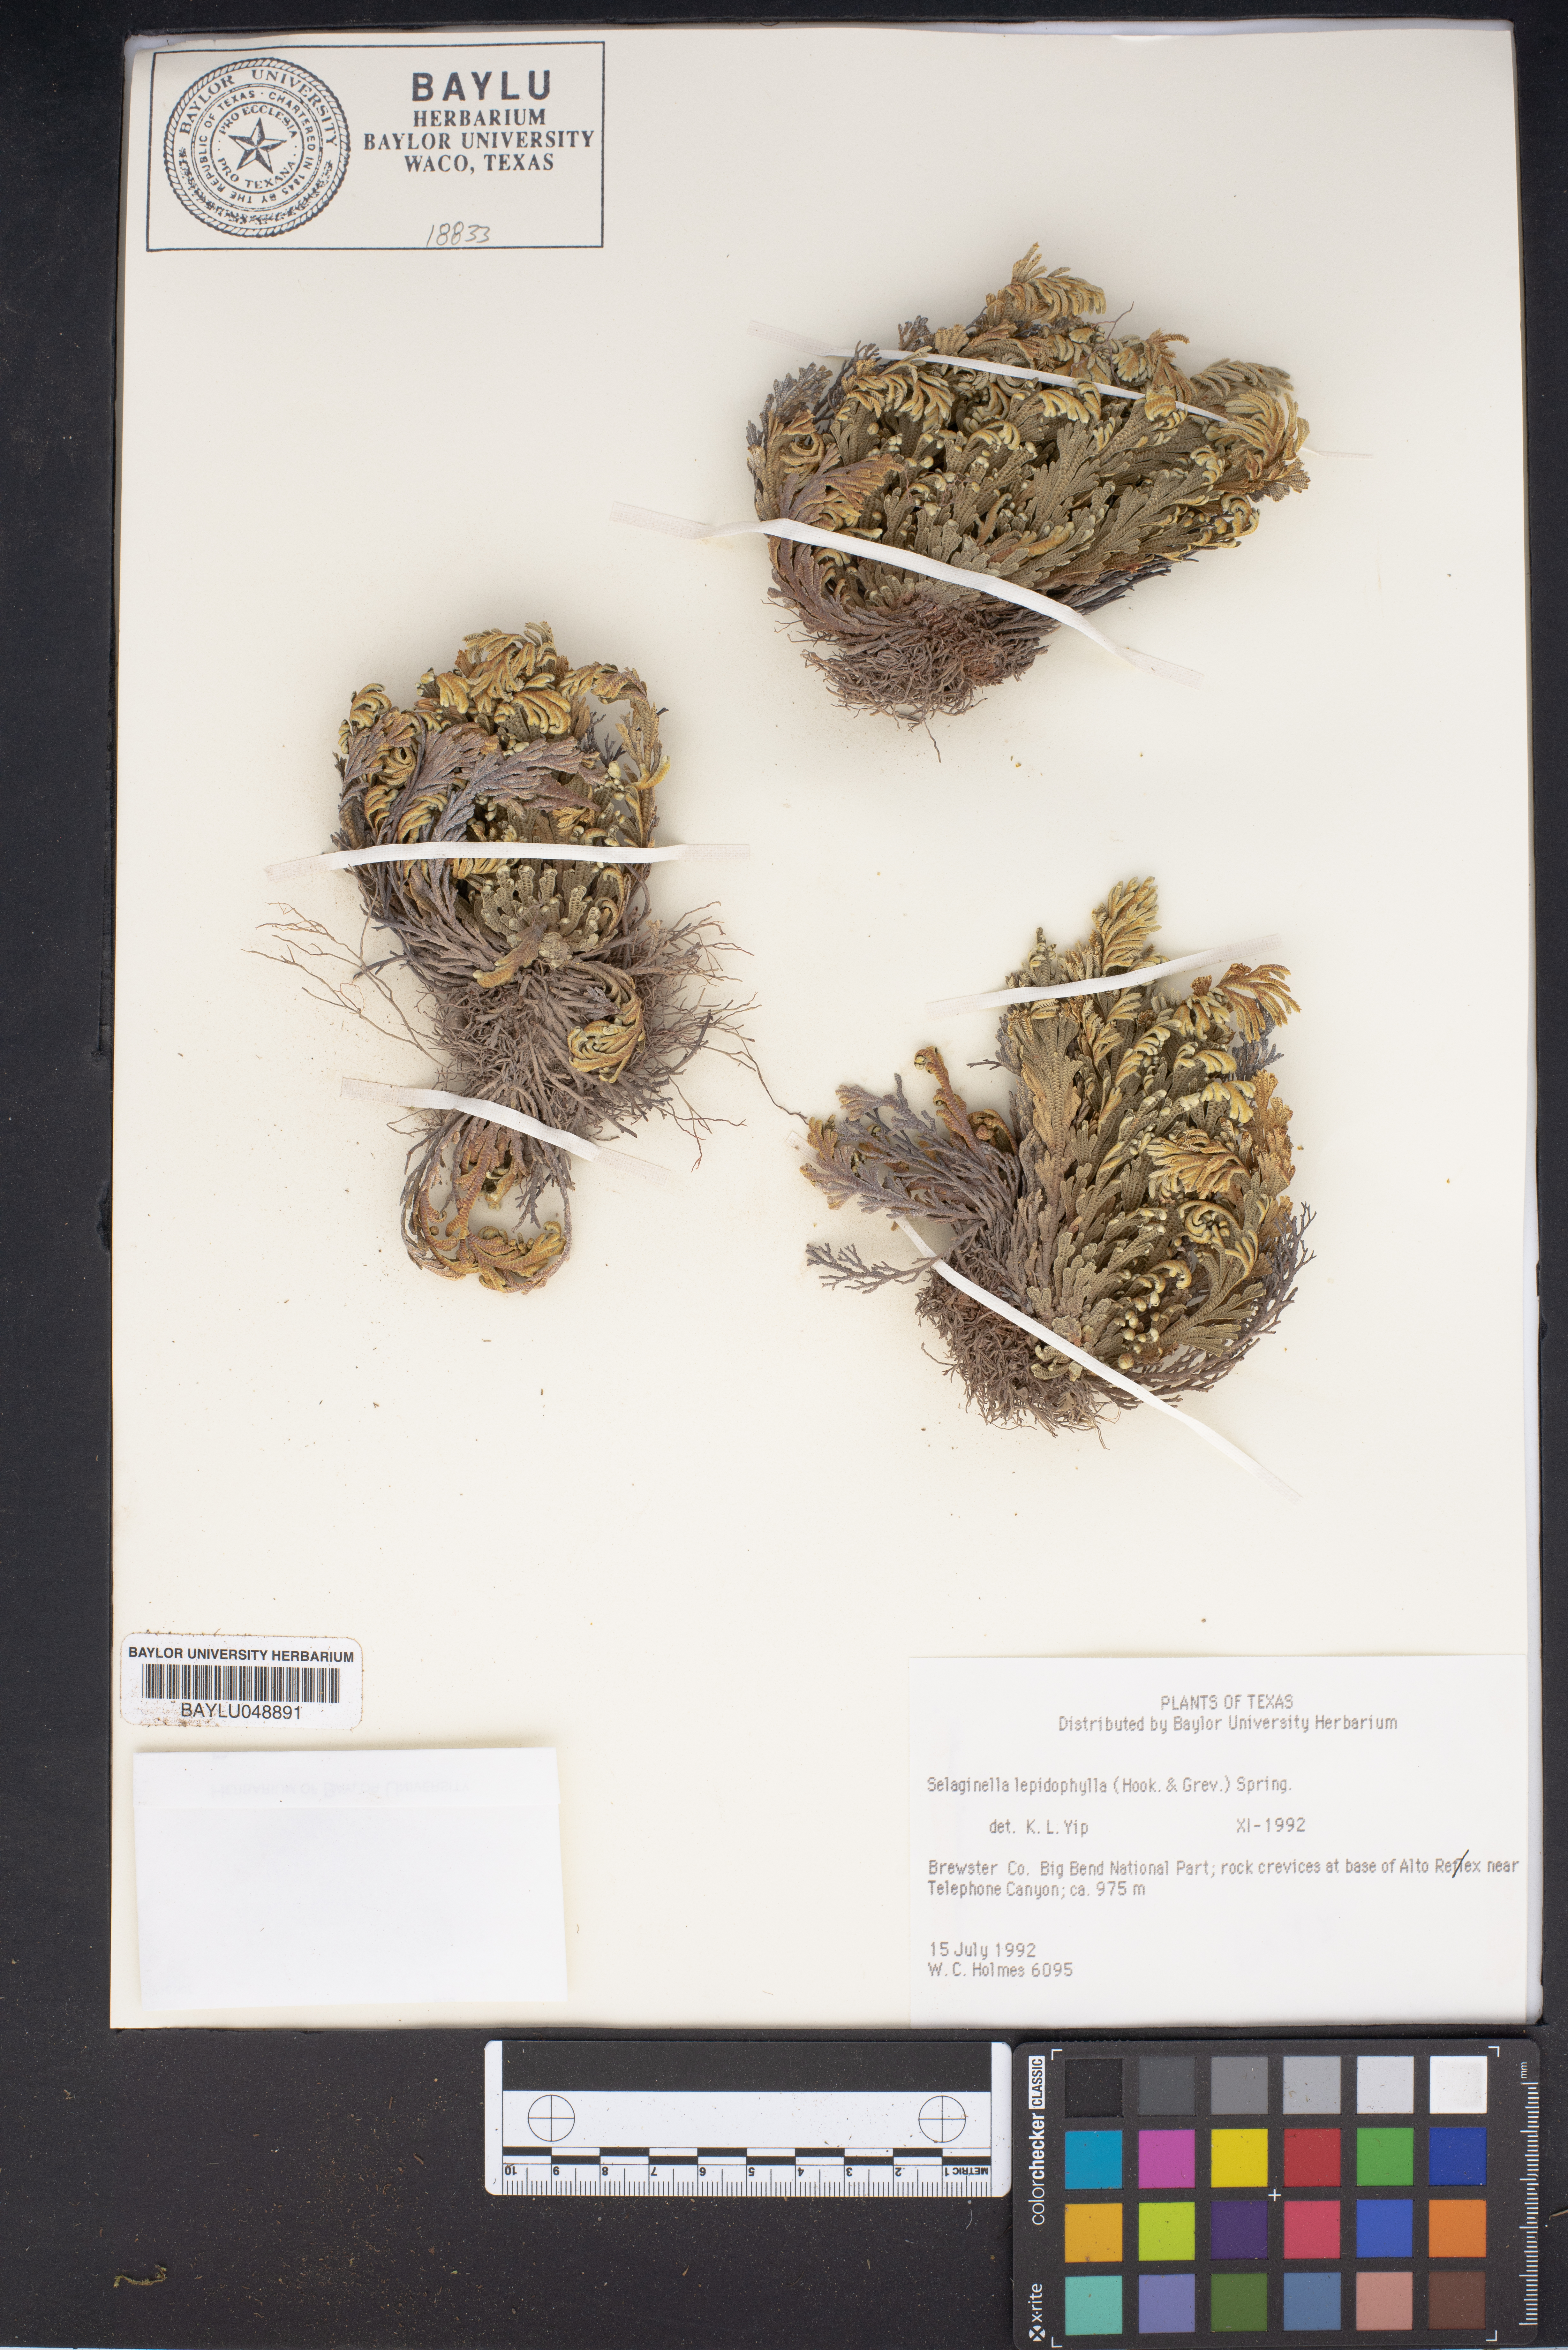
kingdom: Plantae
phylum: Tracheophyta
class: Lycopodiopsida
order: Selaginellales
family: Selaginellaceae
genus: Selaginella
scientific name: Selaginella lepidophylla
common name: Rose-of-jericho
